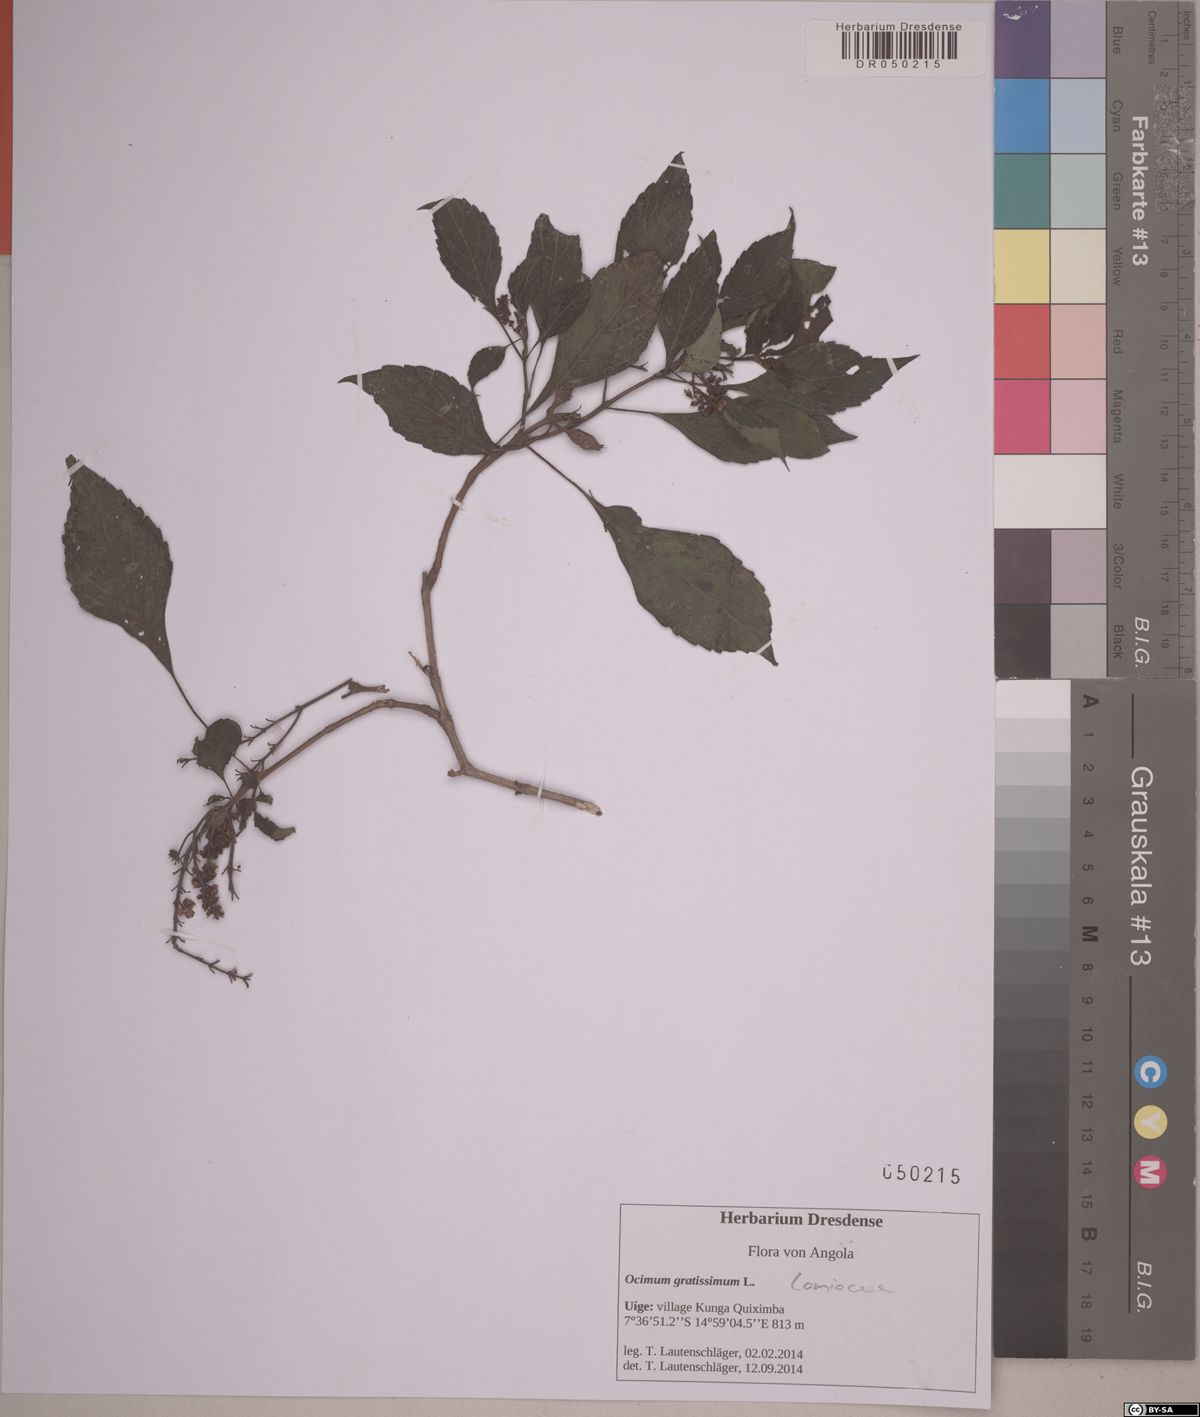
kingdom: Plantae
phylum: Tracheophyta
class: Magnoliopsida
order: Lamiales
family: Lamiaceae
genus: Ocimum
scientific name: Ocimum gratissimum
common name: African basil
